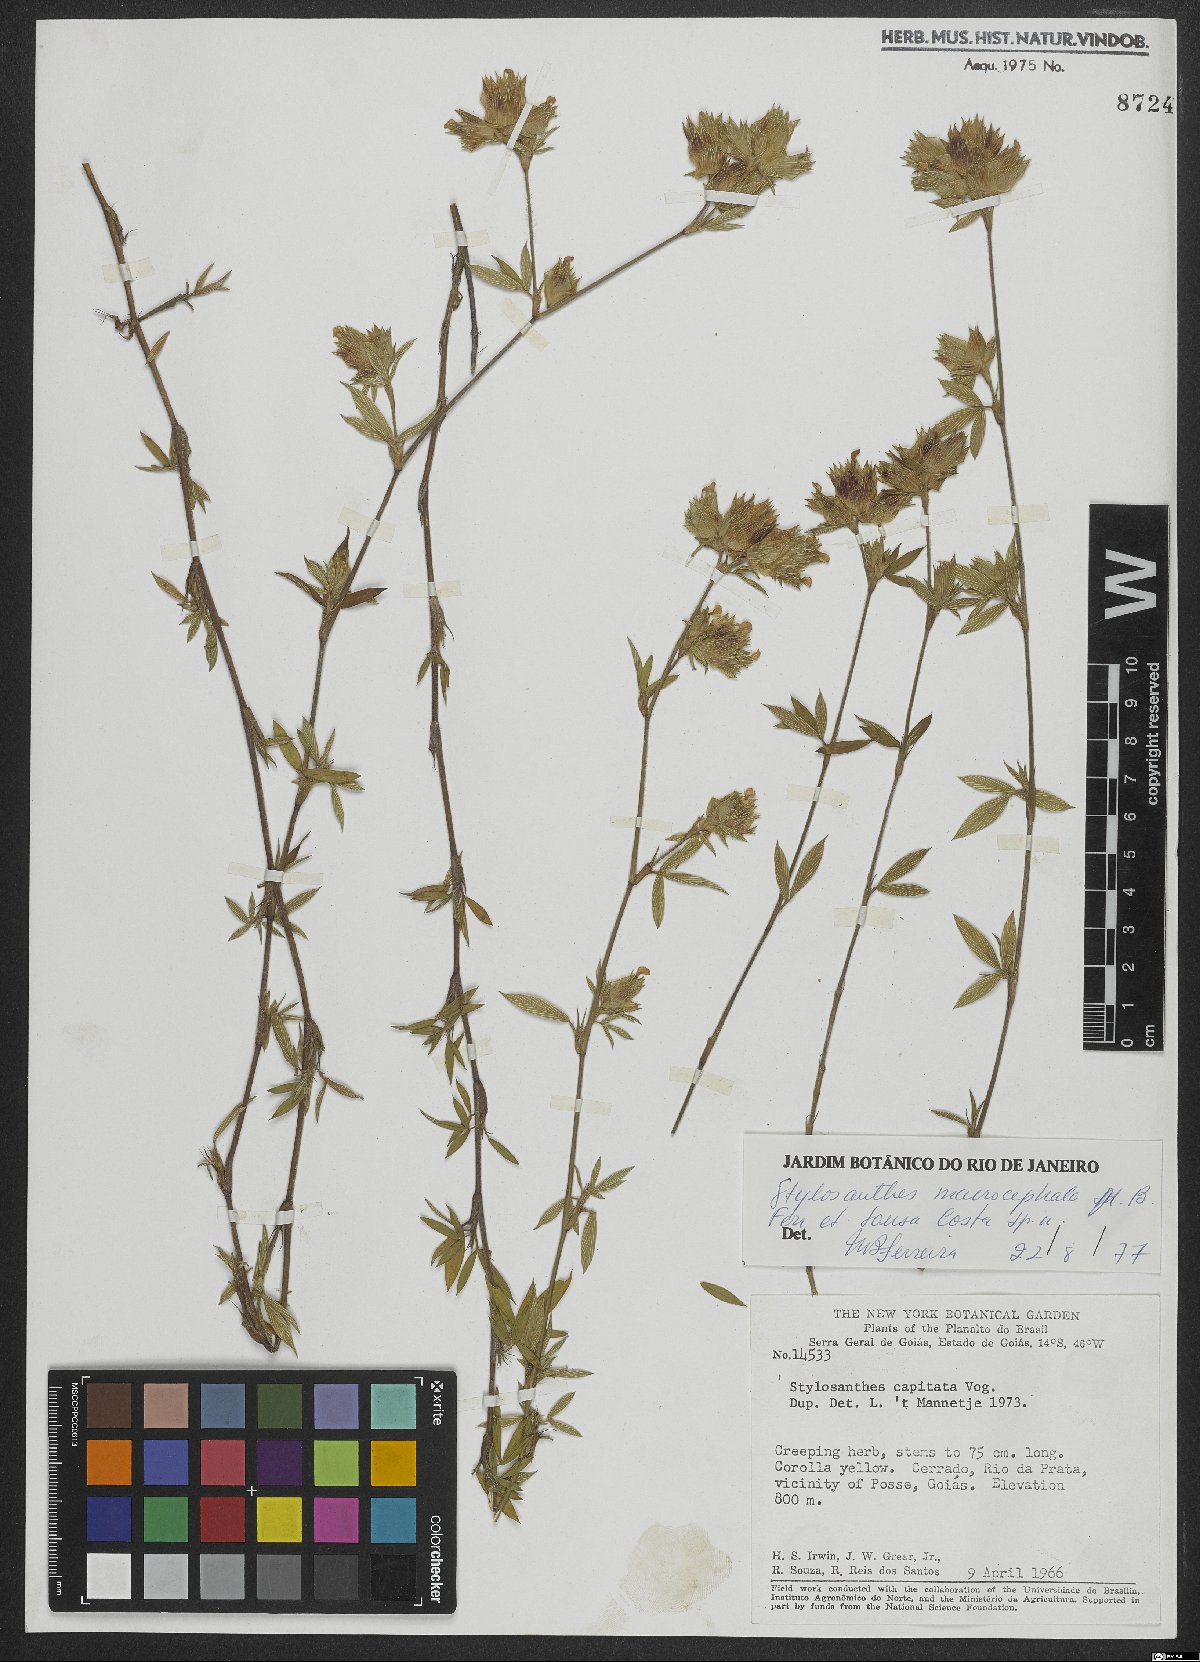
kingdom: Plantae
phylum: Tracheophyta
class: Magnoliopsida
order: Fabales
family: Fabaceae
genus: Stylosanthes
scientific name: Stylosanthes macrocephala
